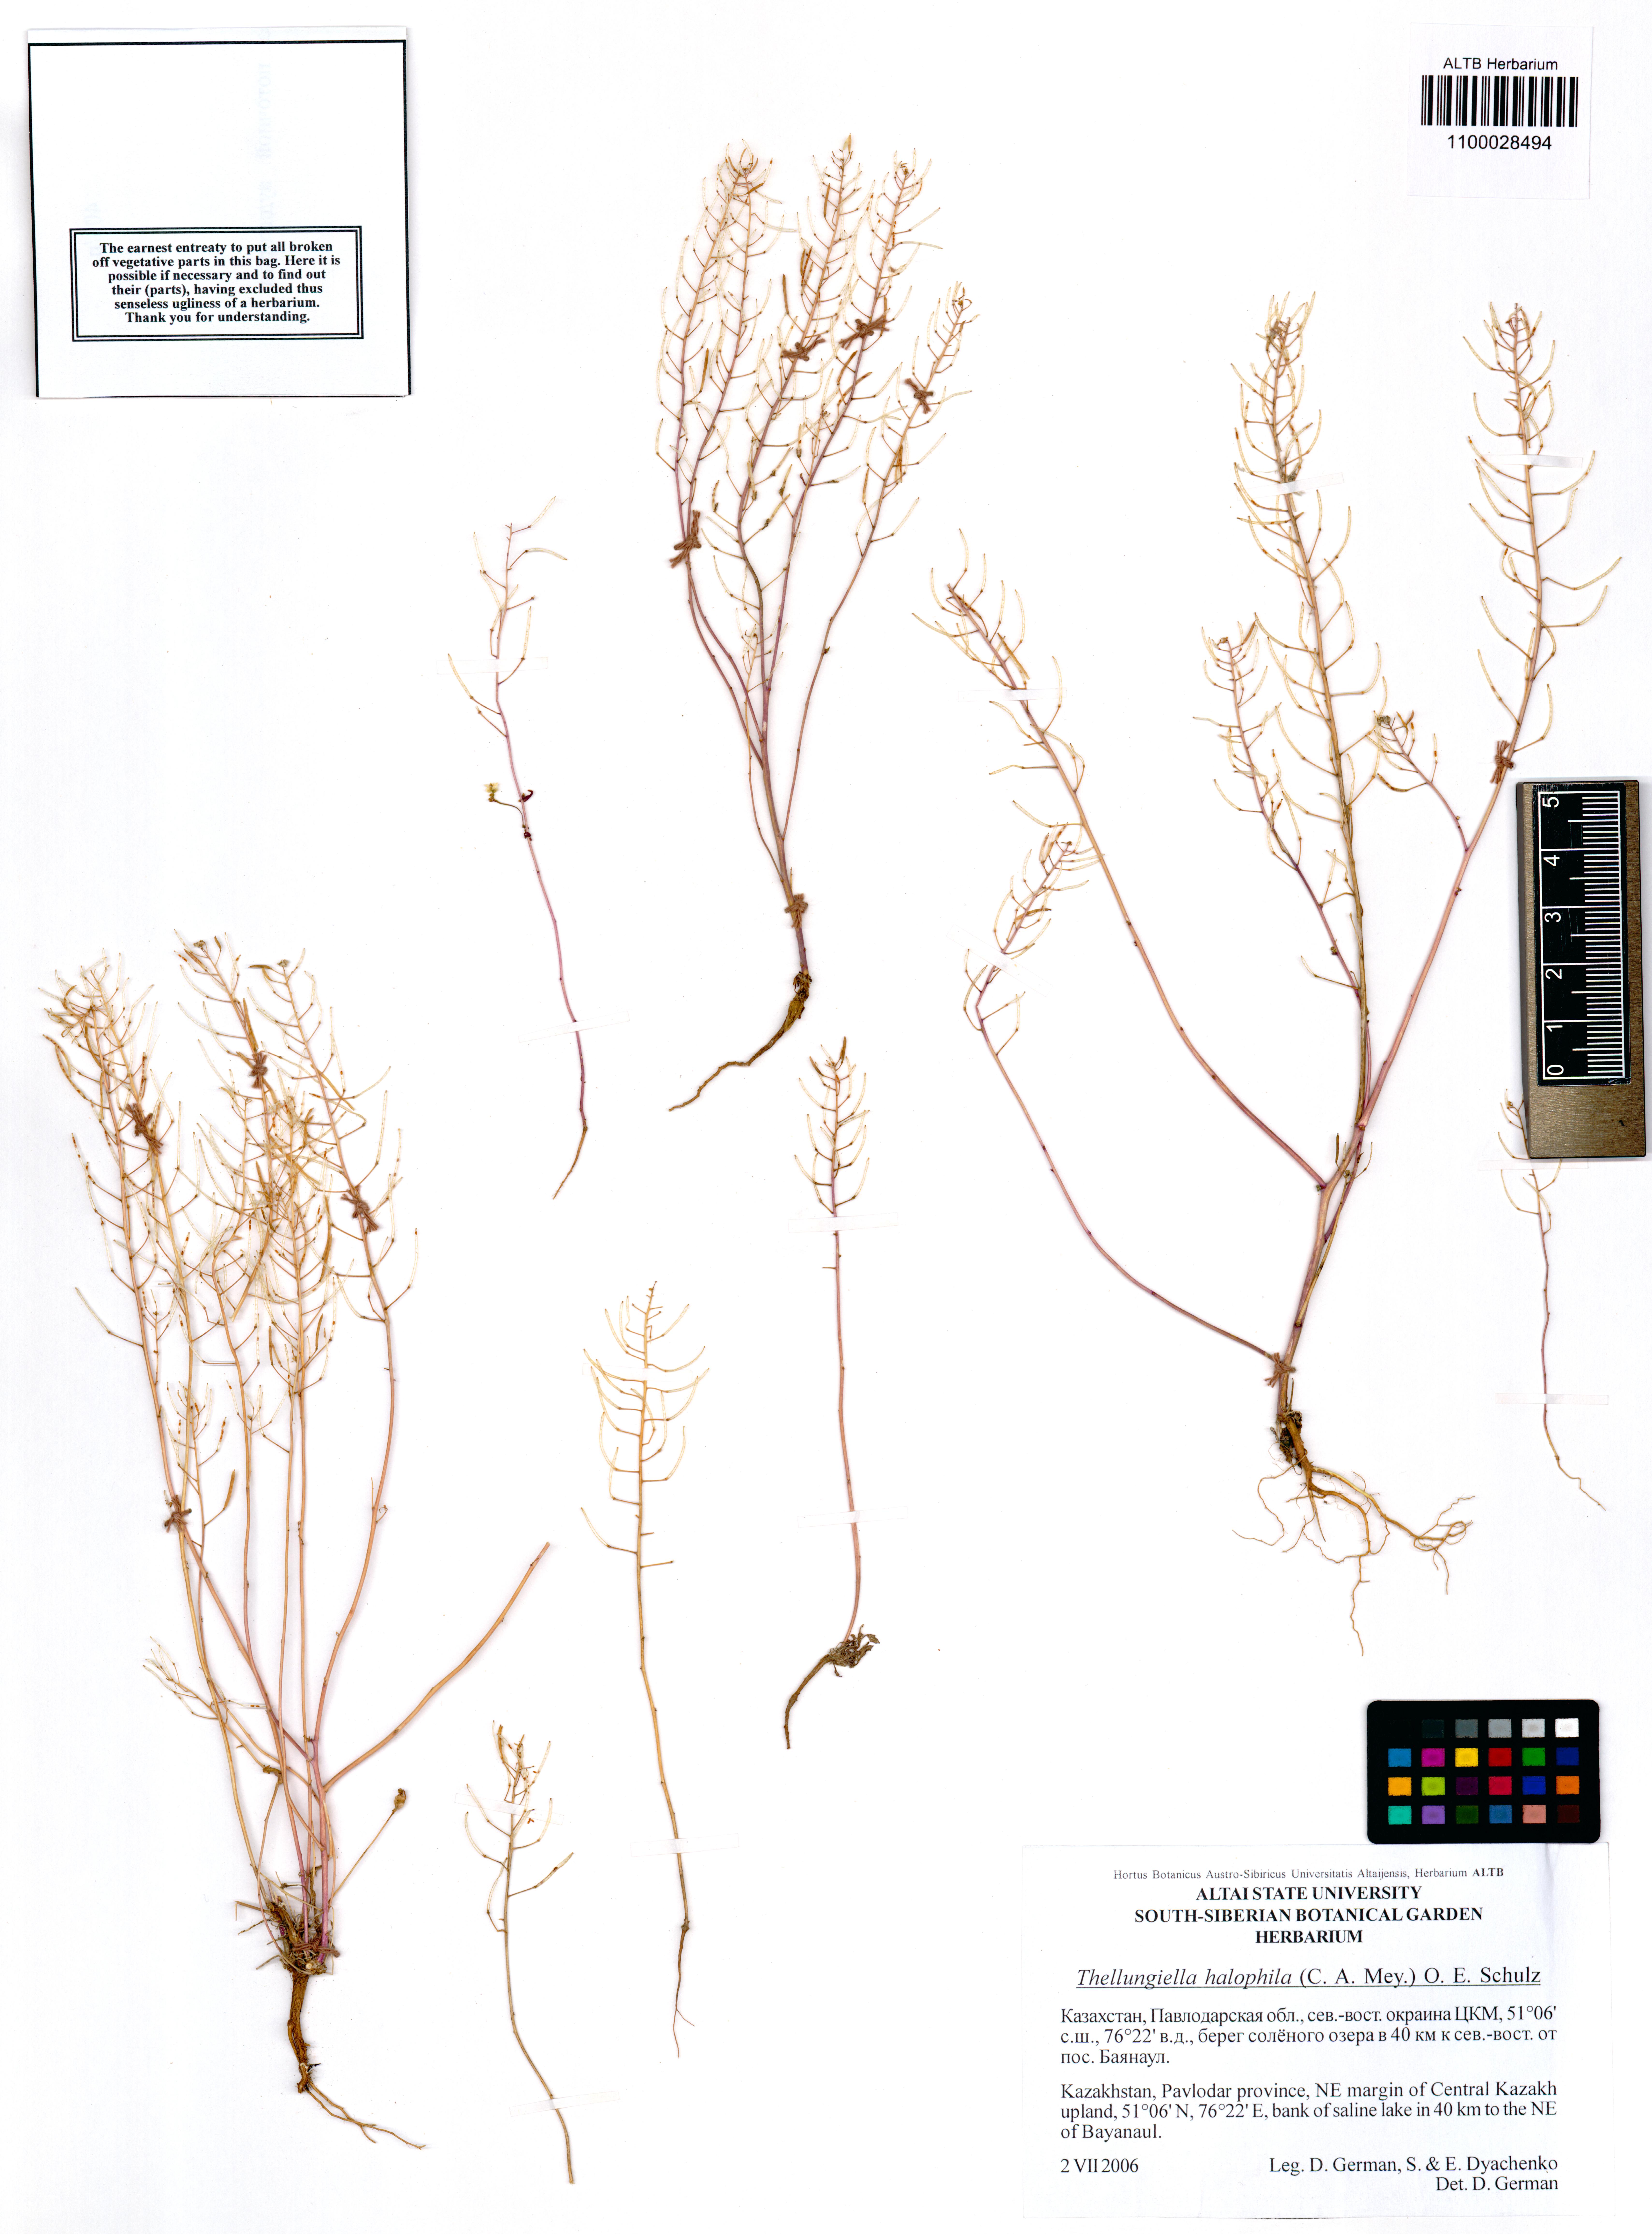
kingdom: Plantae
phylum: Tracheophyta
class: Magnoliopsida
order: Brassicales
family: Brassicaceae
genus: Eutrema
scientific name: Eutrema halophilum
